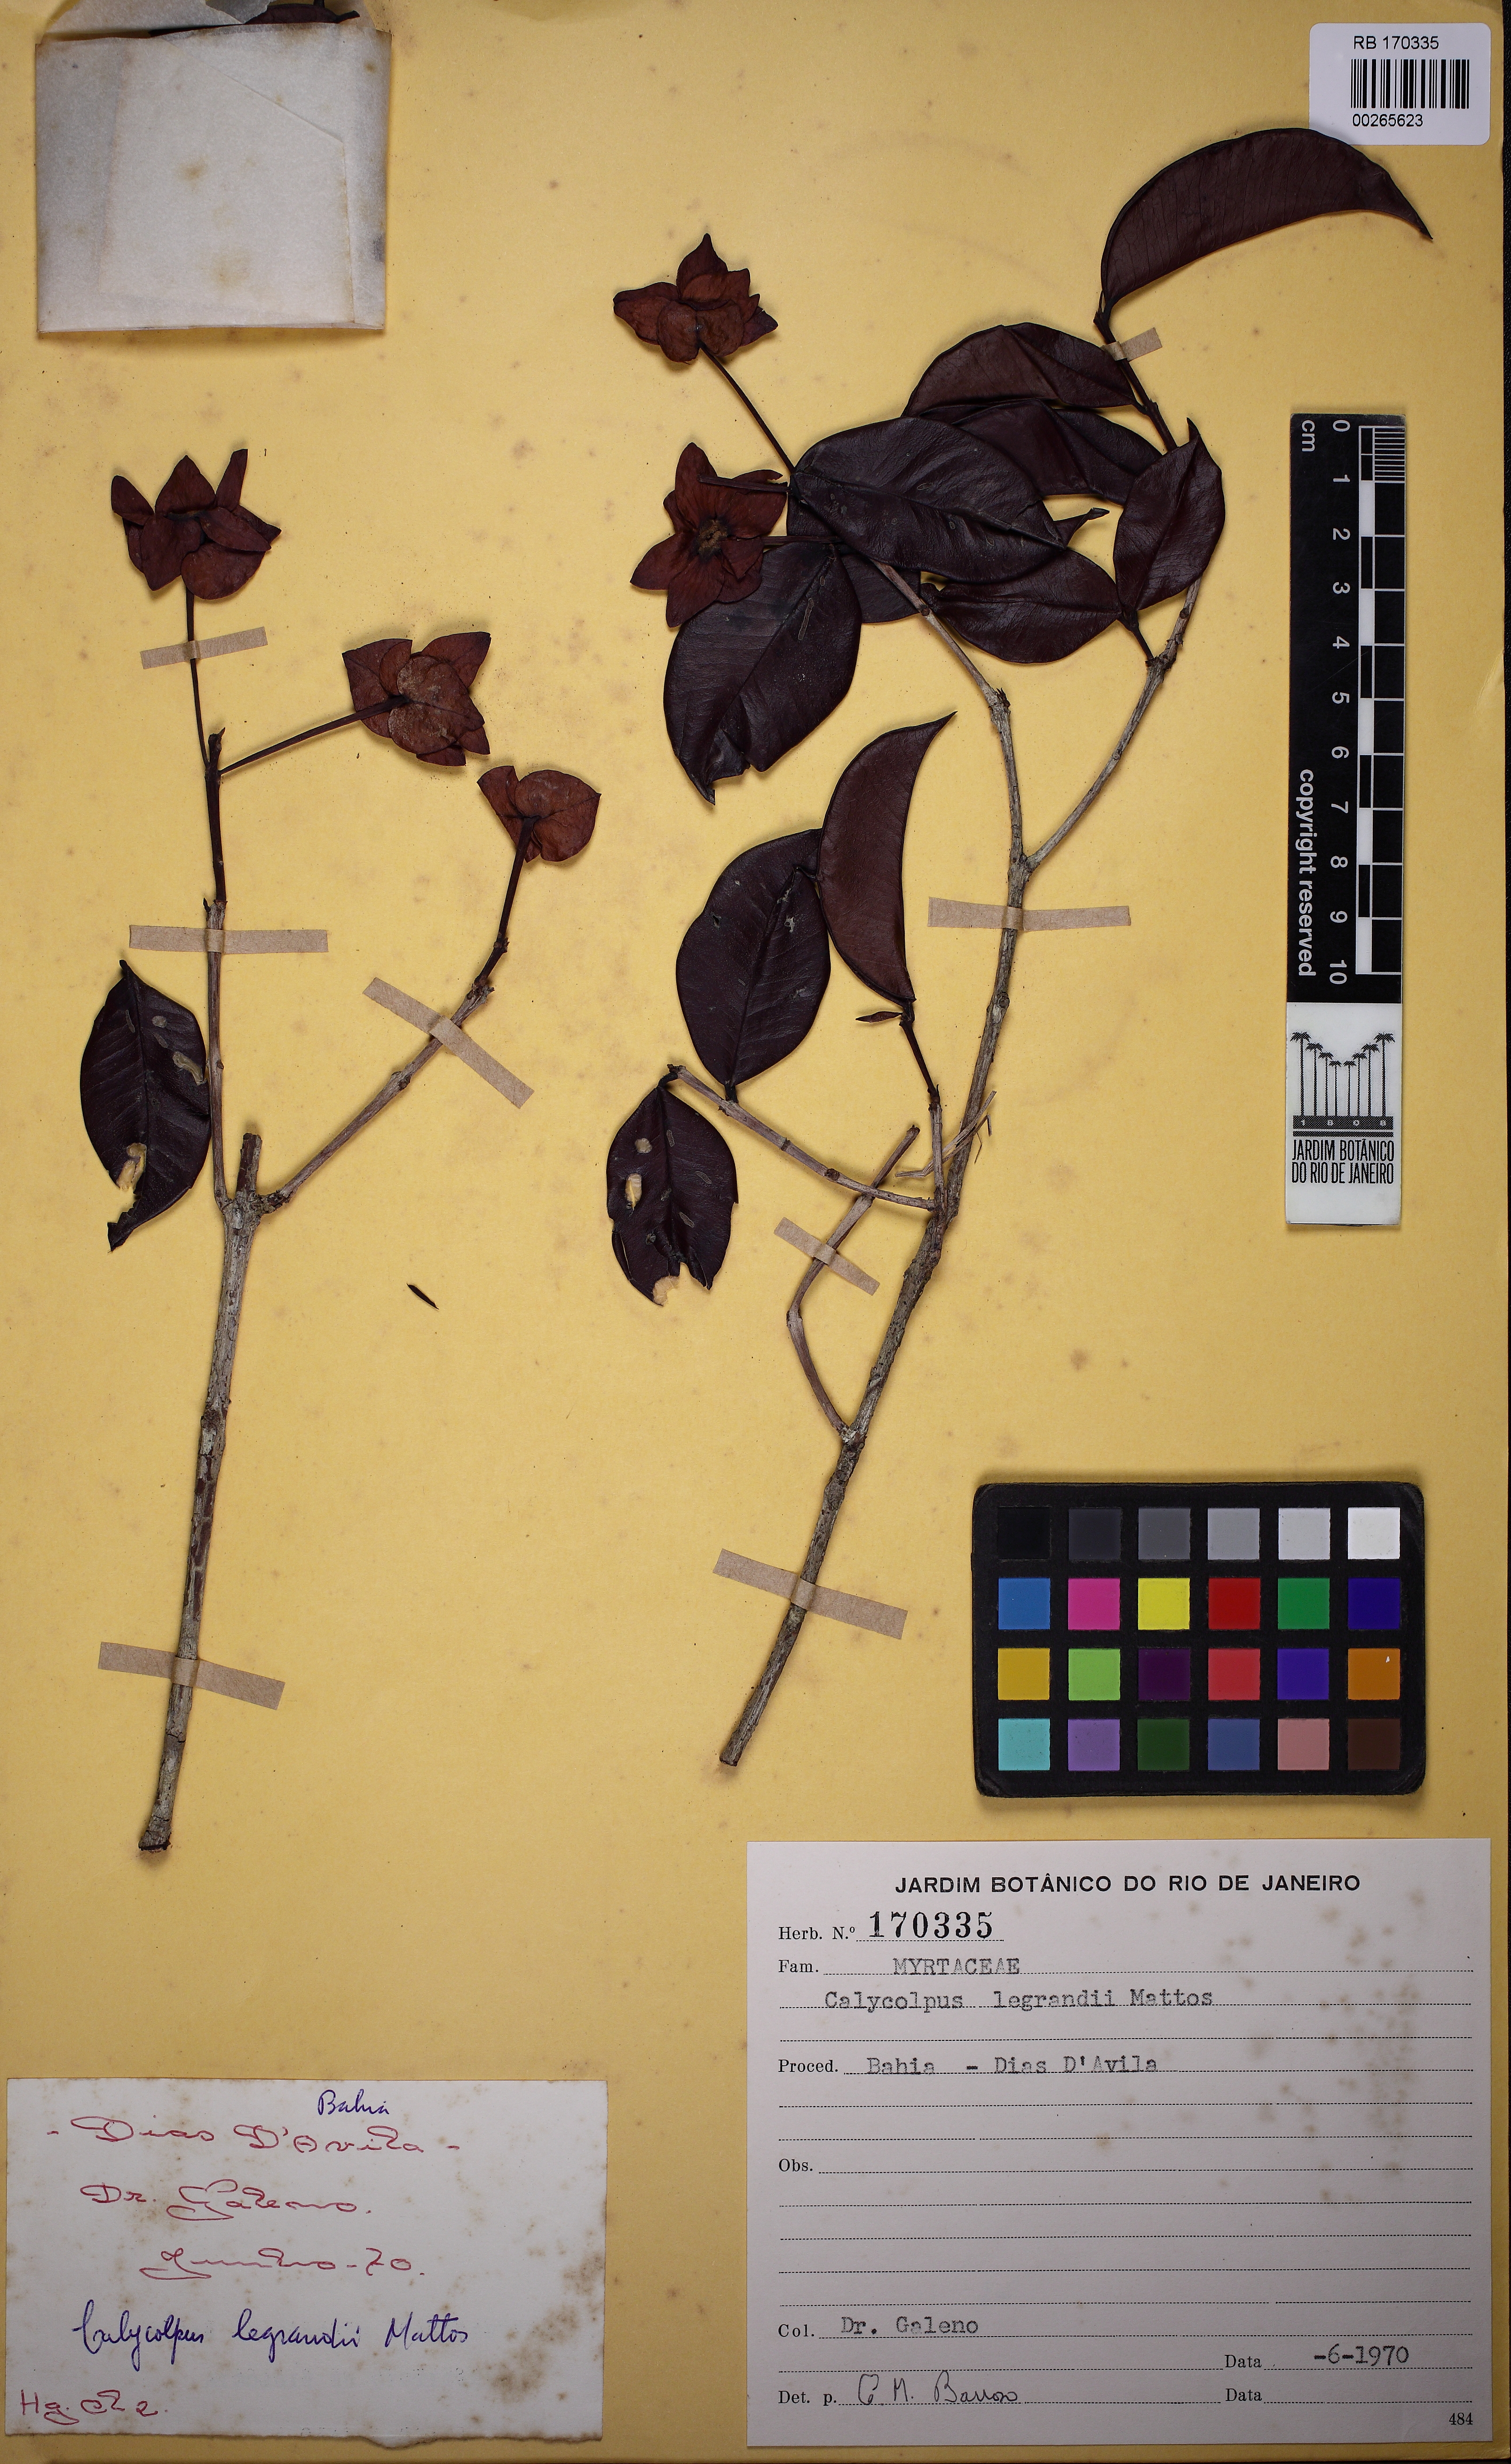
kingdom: Plantae
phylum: Tracheophyta
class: Magnoliopsida
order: Myrtales
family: Myrtaceae
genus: Calycolpus
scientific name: Calycolpus legrandii
